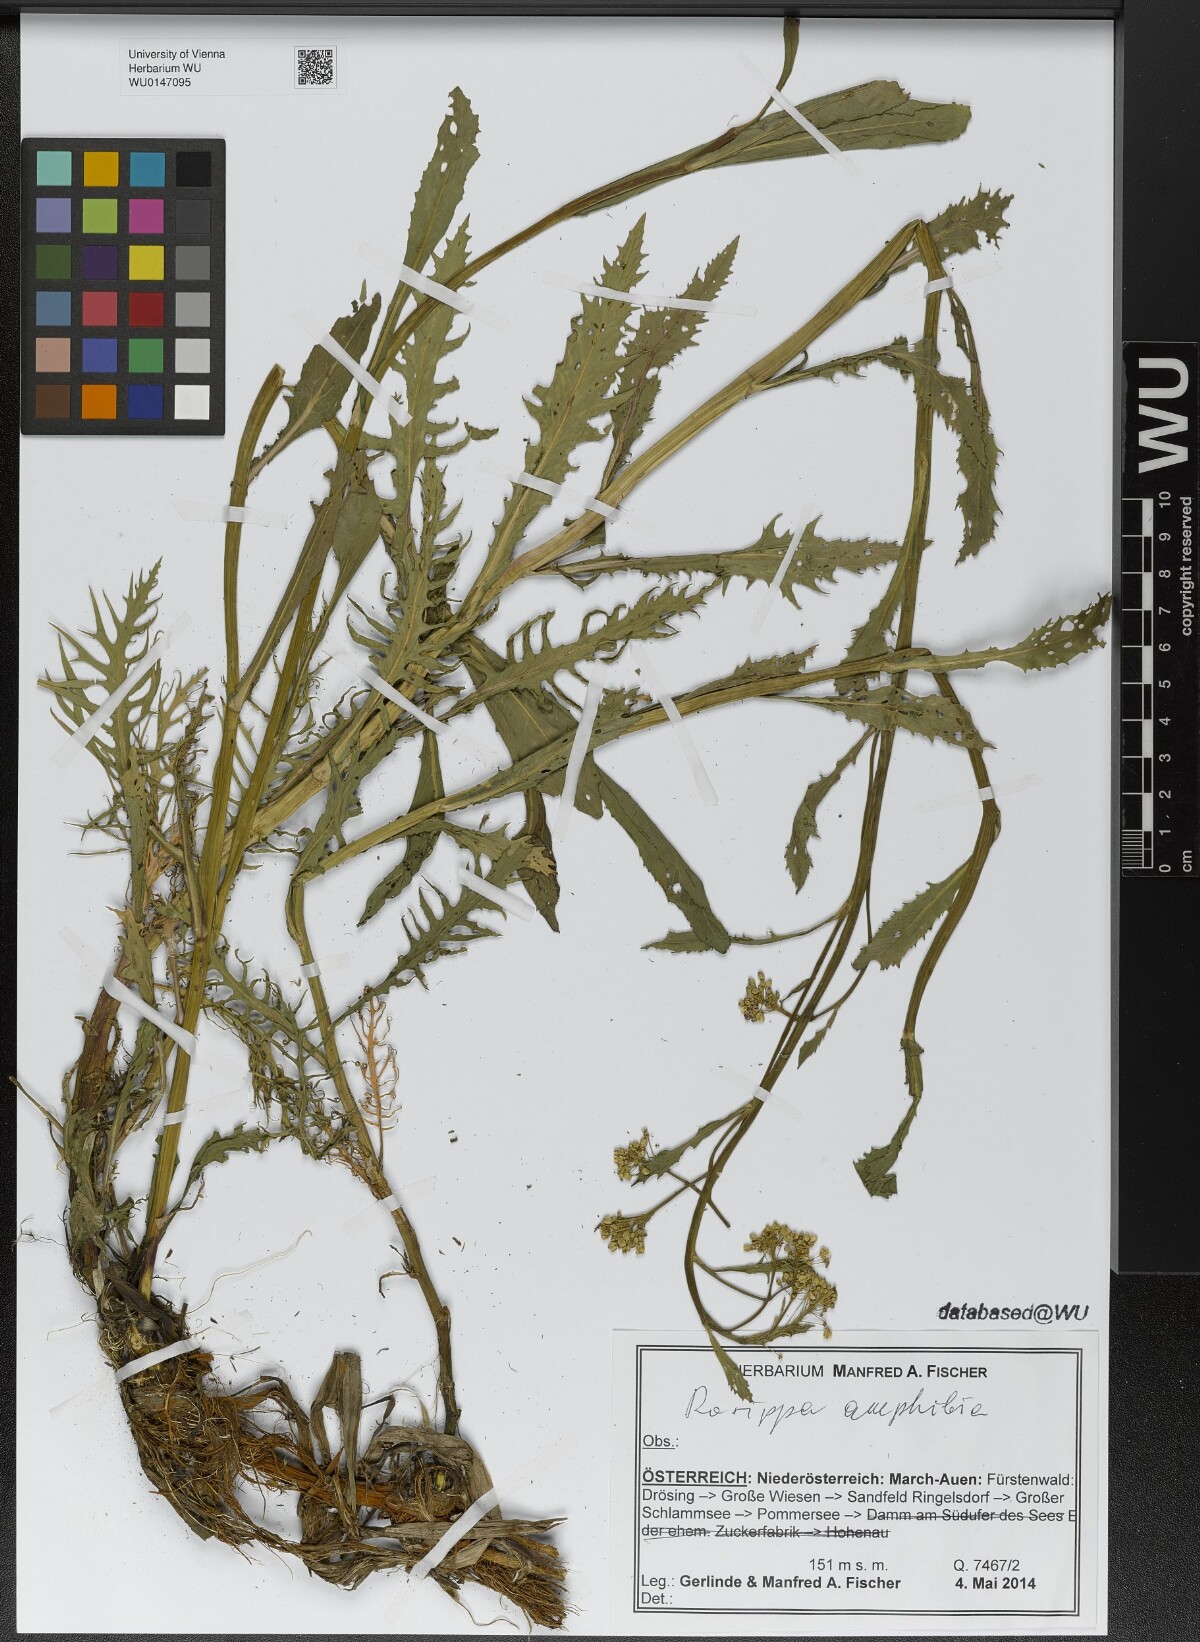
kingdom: Plantae
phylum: Tracheophyta
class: Magnoliopsida
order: Brassicales
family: Brassicaceae
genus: Rorippa
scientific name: Rorippa amphibia
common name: Great yellow-cress
